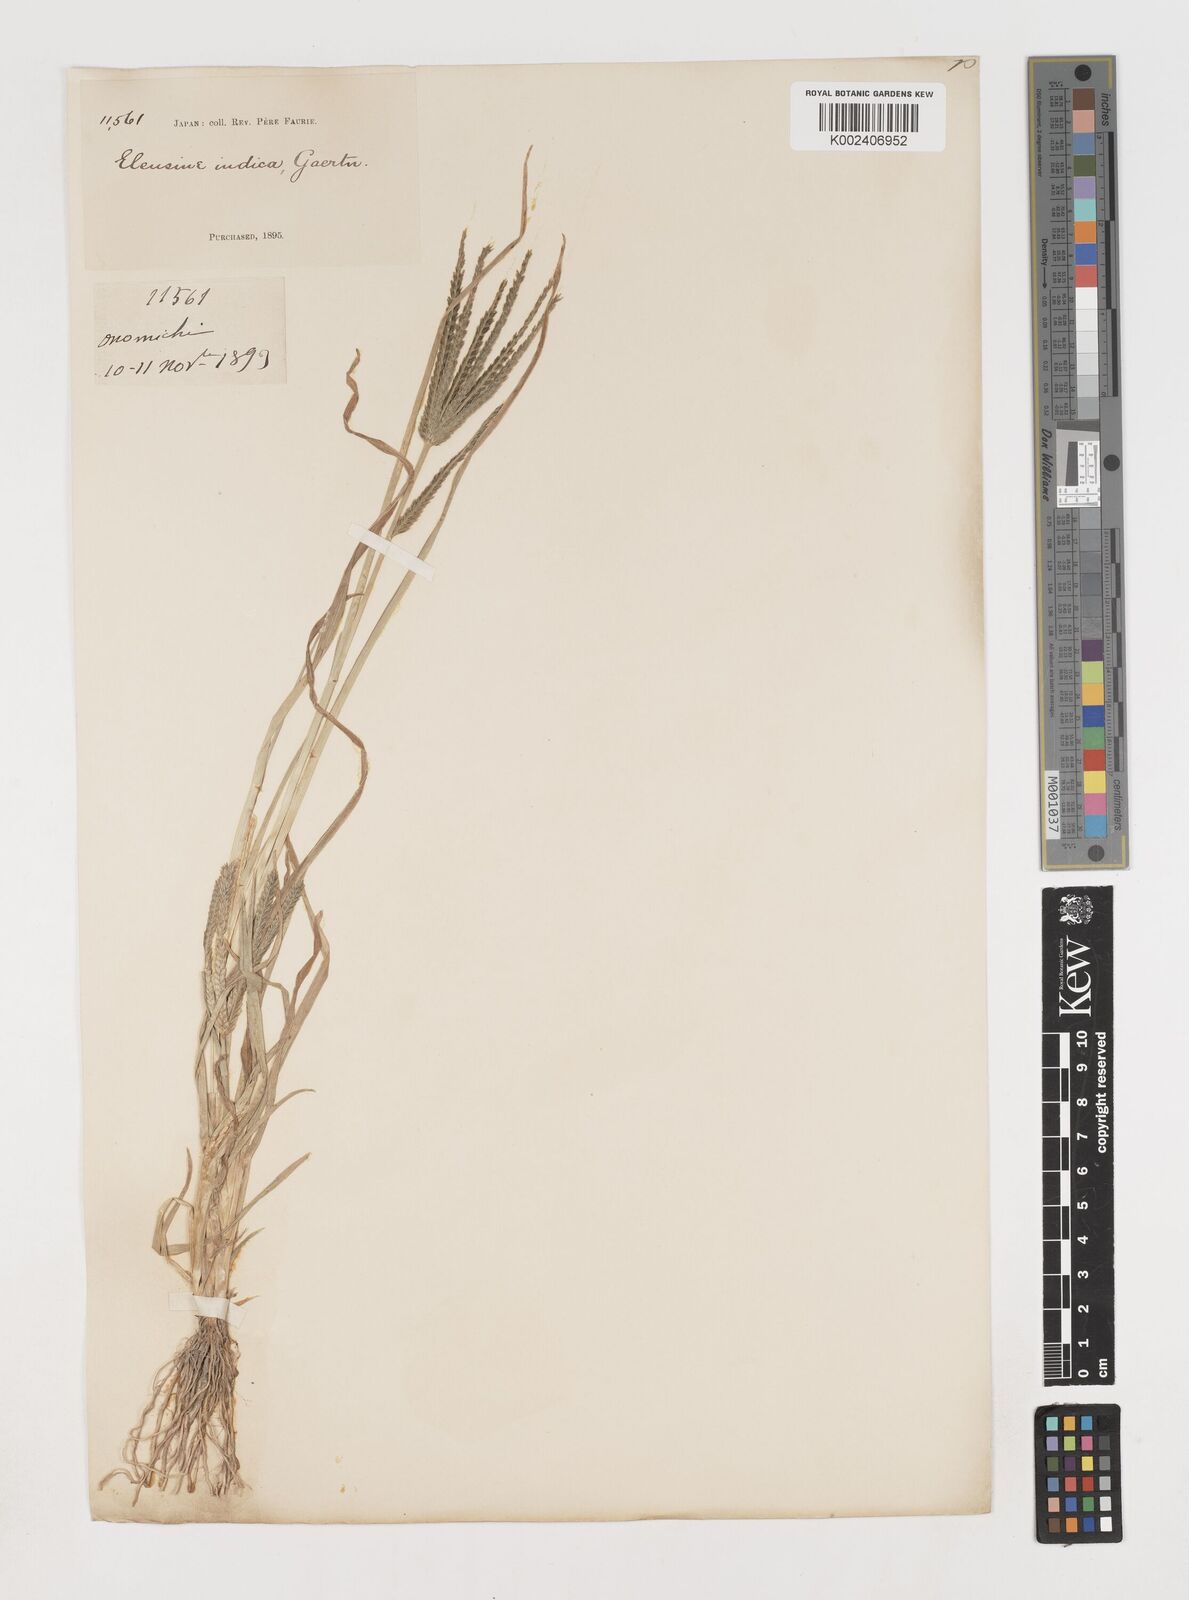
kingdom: Plantae
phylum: Tracheophyta
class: Liliopsida
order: Poales
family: Poaceae
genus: Eleusine
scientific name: Eleusine indica
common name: Yard-grass
